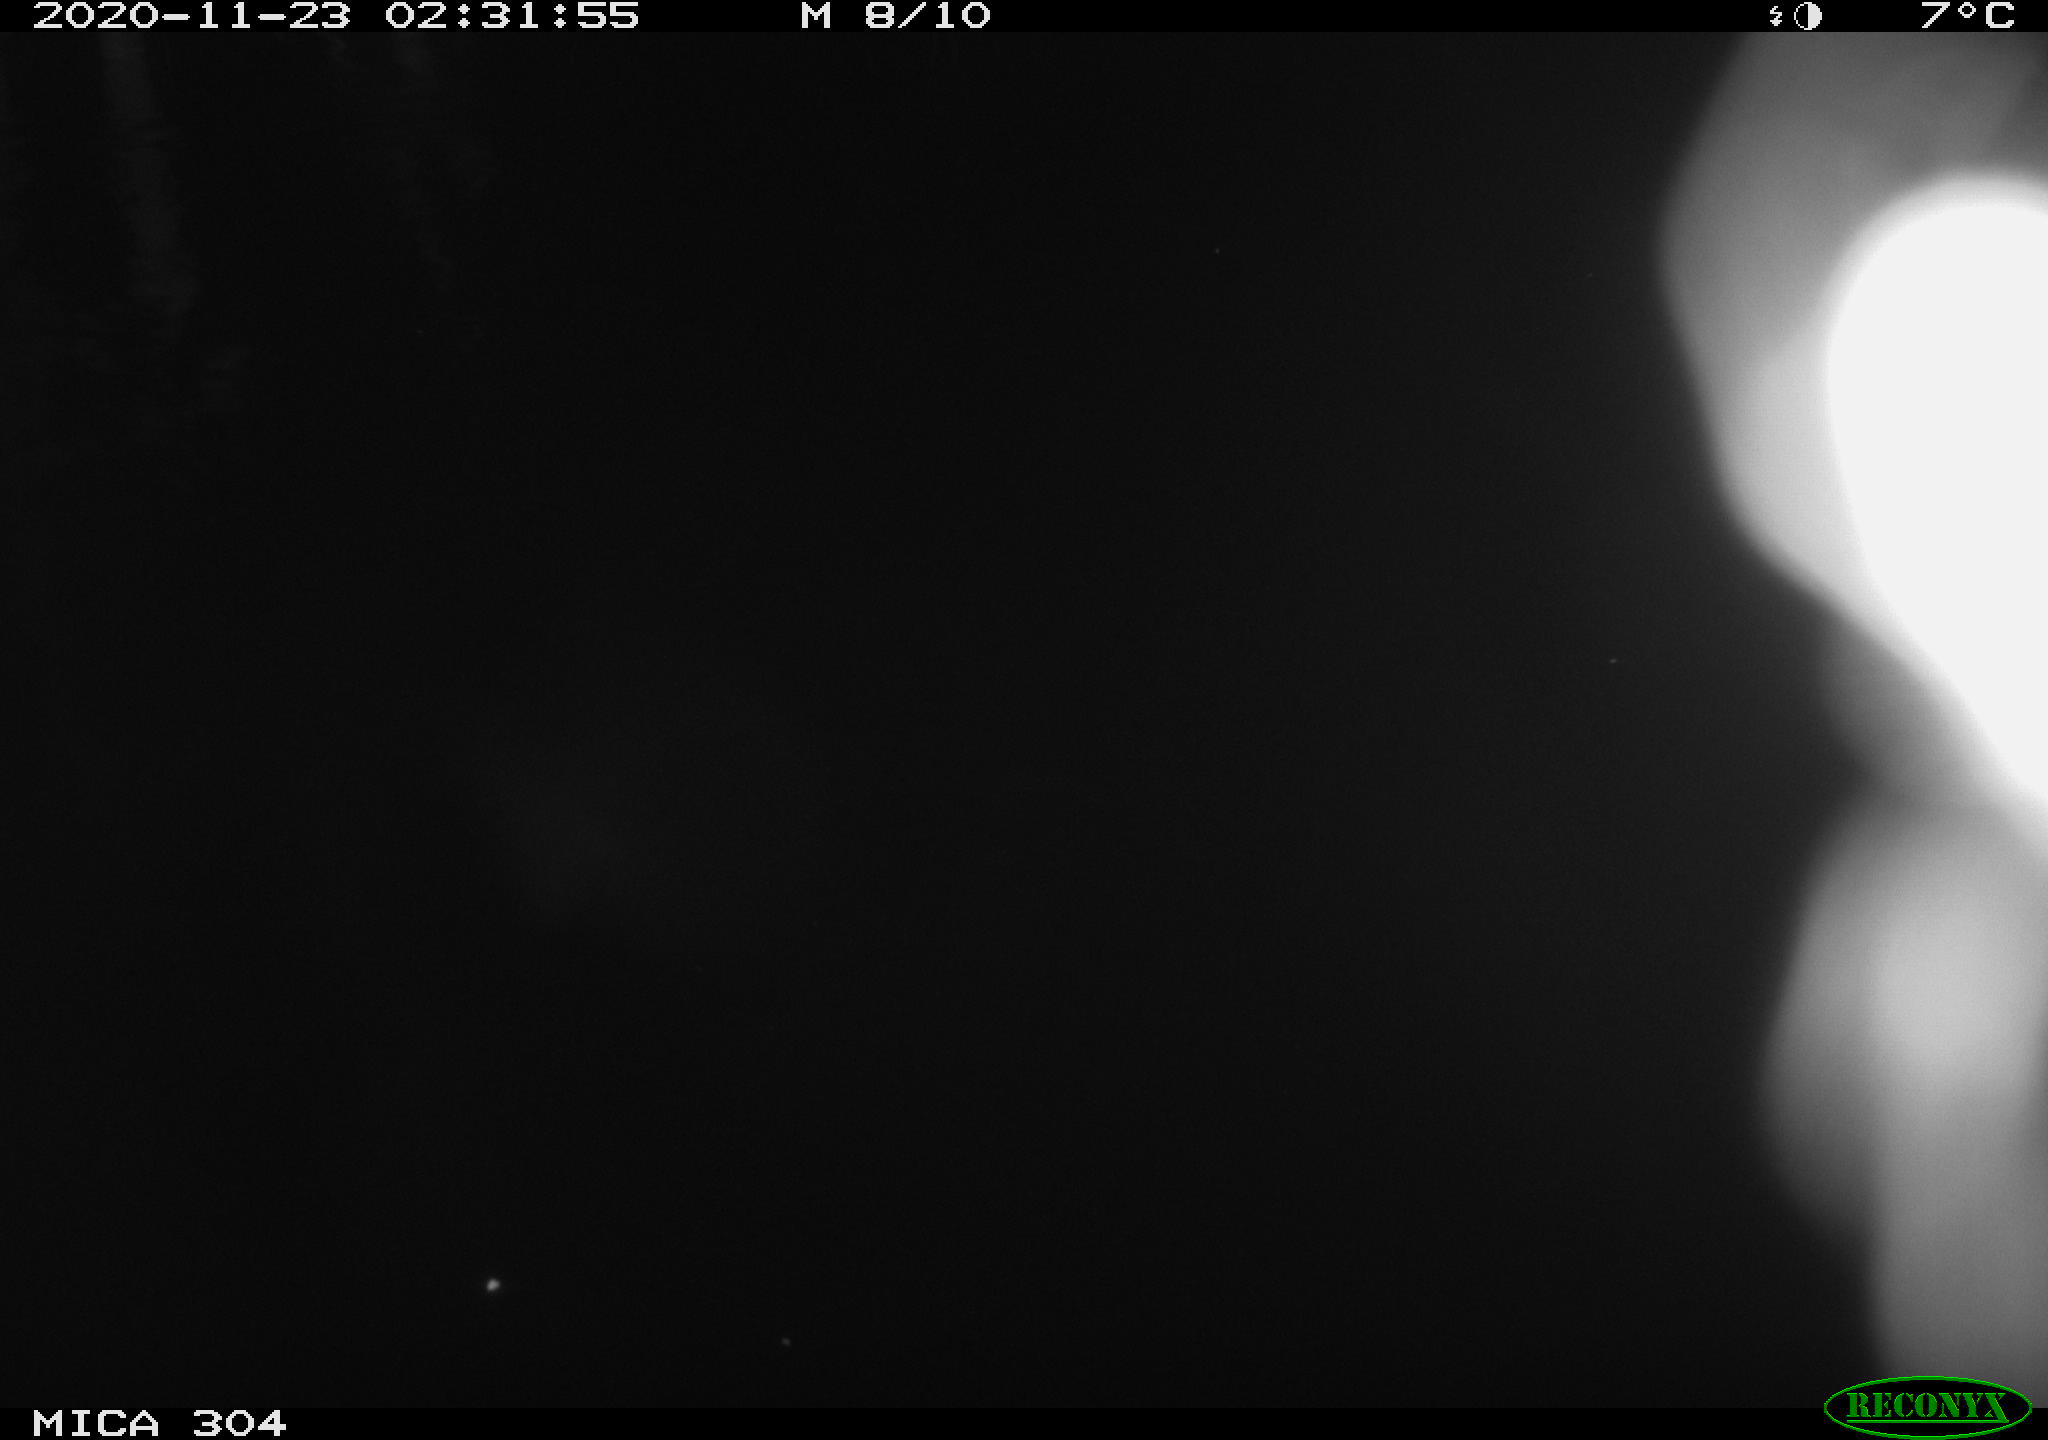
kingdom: Animalia
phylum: Chordata
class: Mammalia
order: Rodentia
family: Muridae
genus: Rattus
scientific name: Rattus norvegicus
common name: Brown rat
